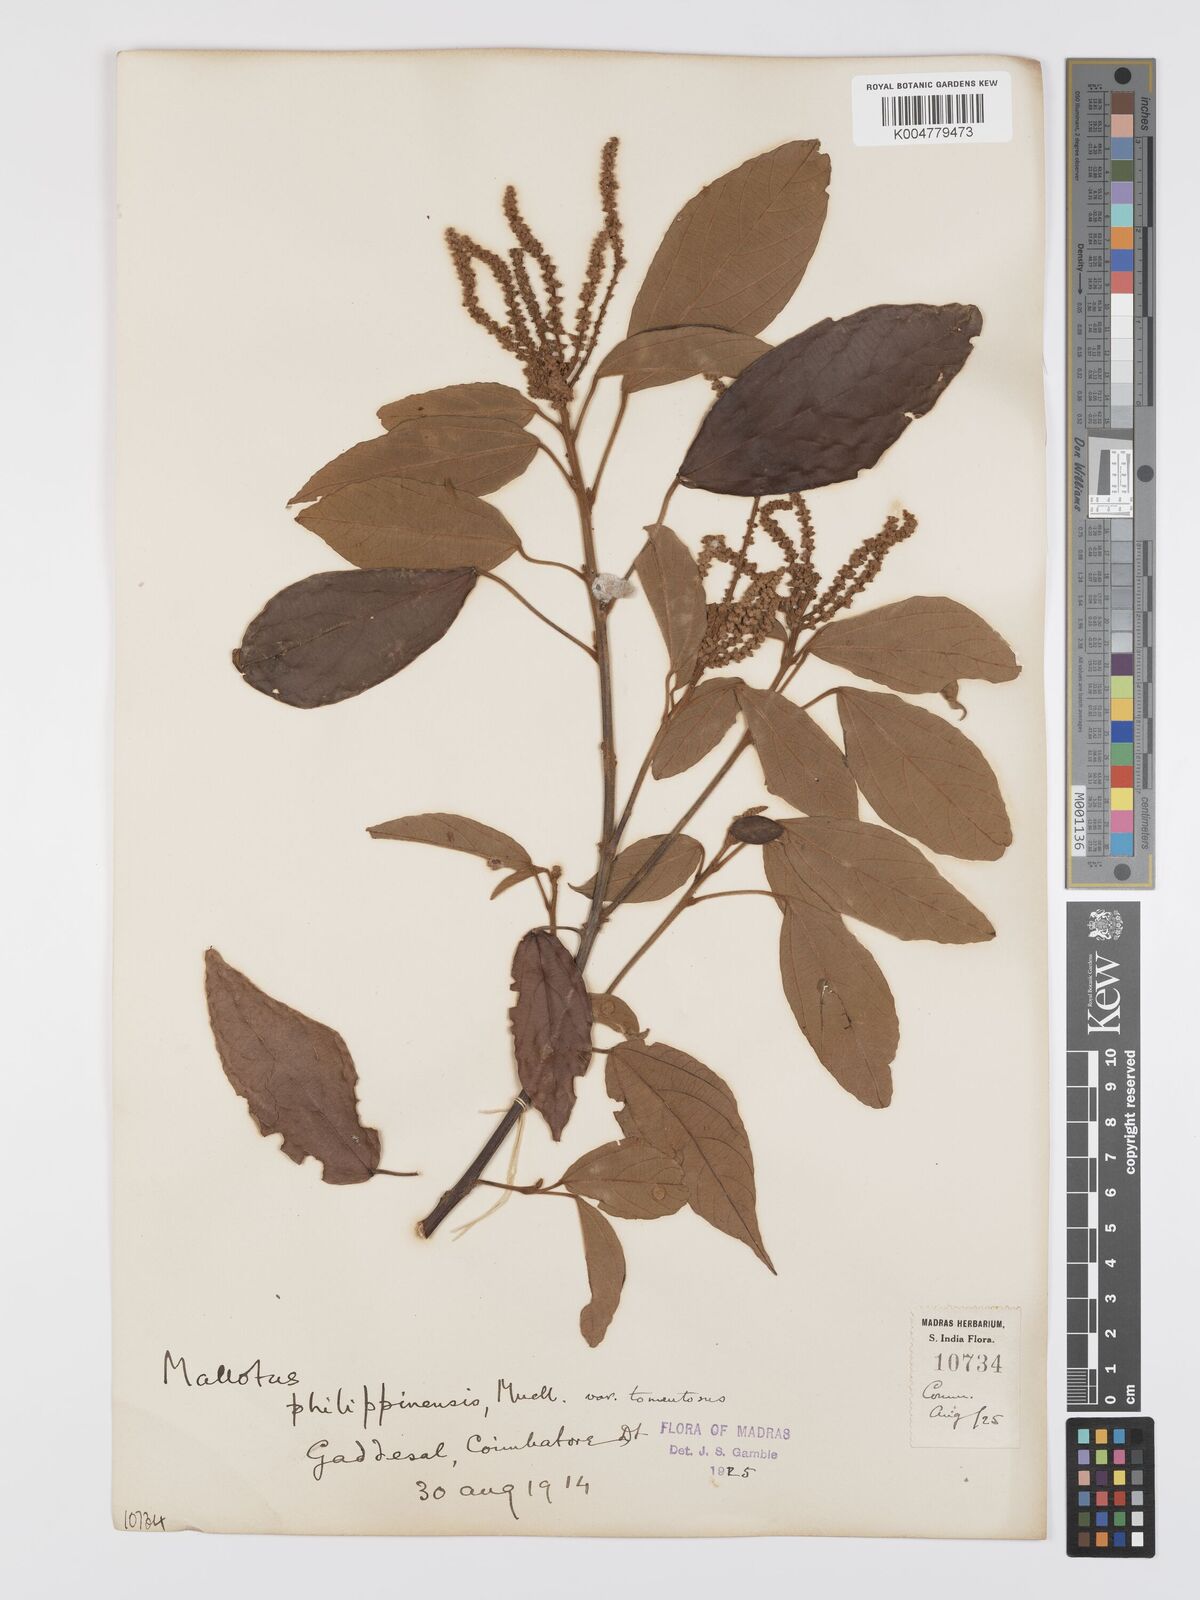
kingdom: Plantae
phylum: Tracheophyta
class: Magnoliopsida
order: Malpighiales
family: Euphorbiaceae
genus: Mallotus
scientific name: Mallotus philippensis
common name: Kamala tree
